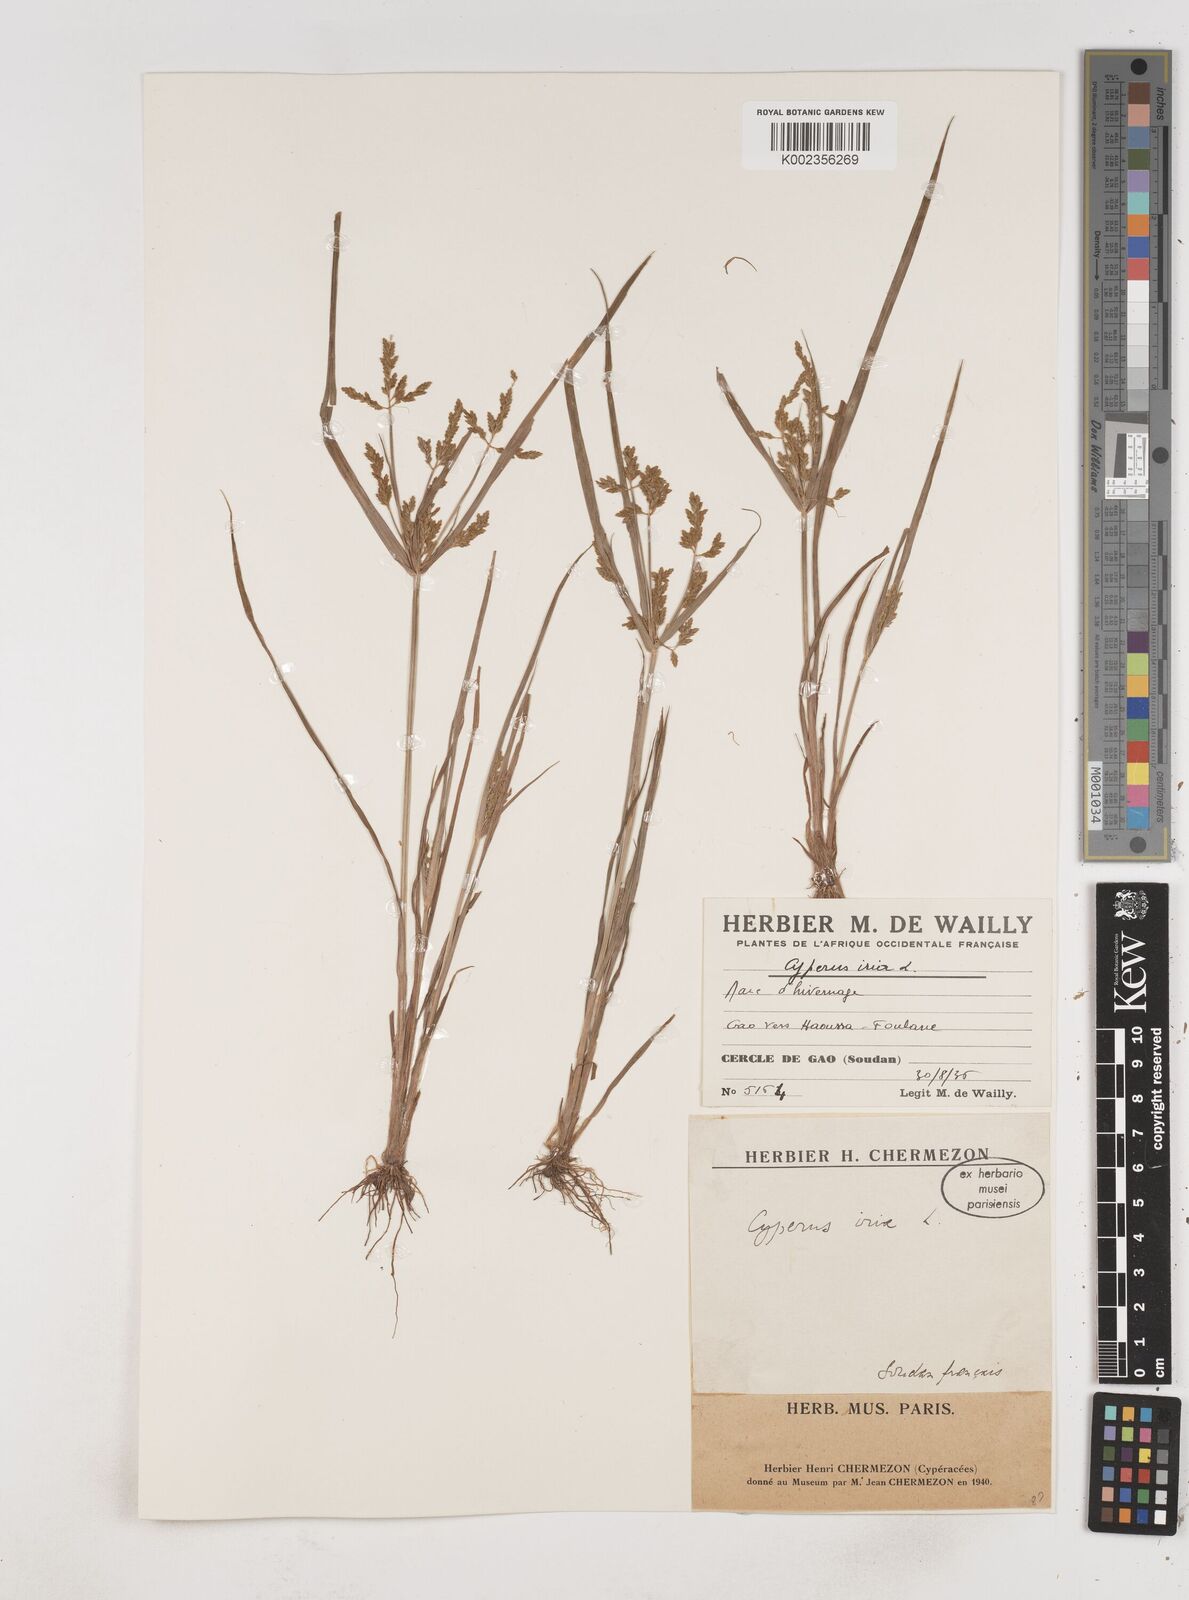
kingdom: Plantae
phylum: Tracheophyta
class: Liliopsida
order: Poales
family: Cyperaceae
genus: Cyperus
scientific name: Cyperus iria
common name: Ricefield flatsedge
